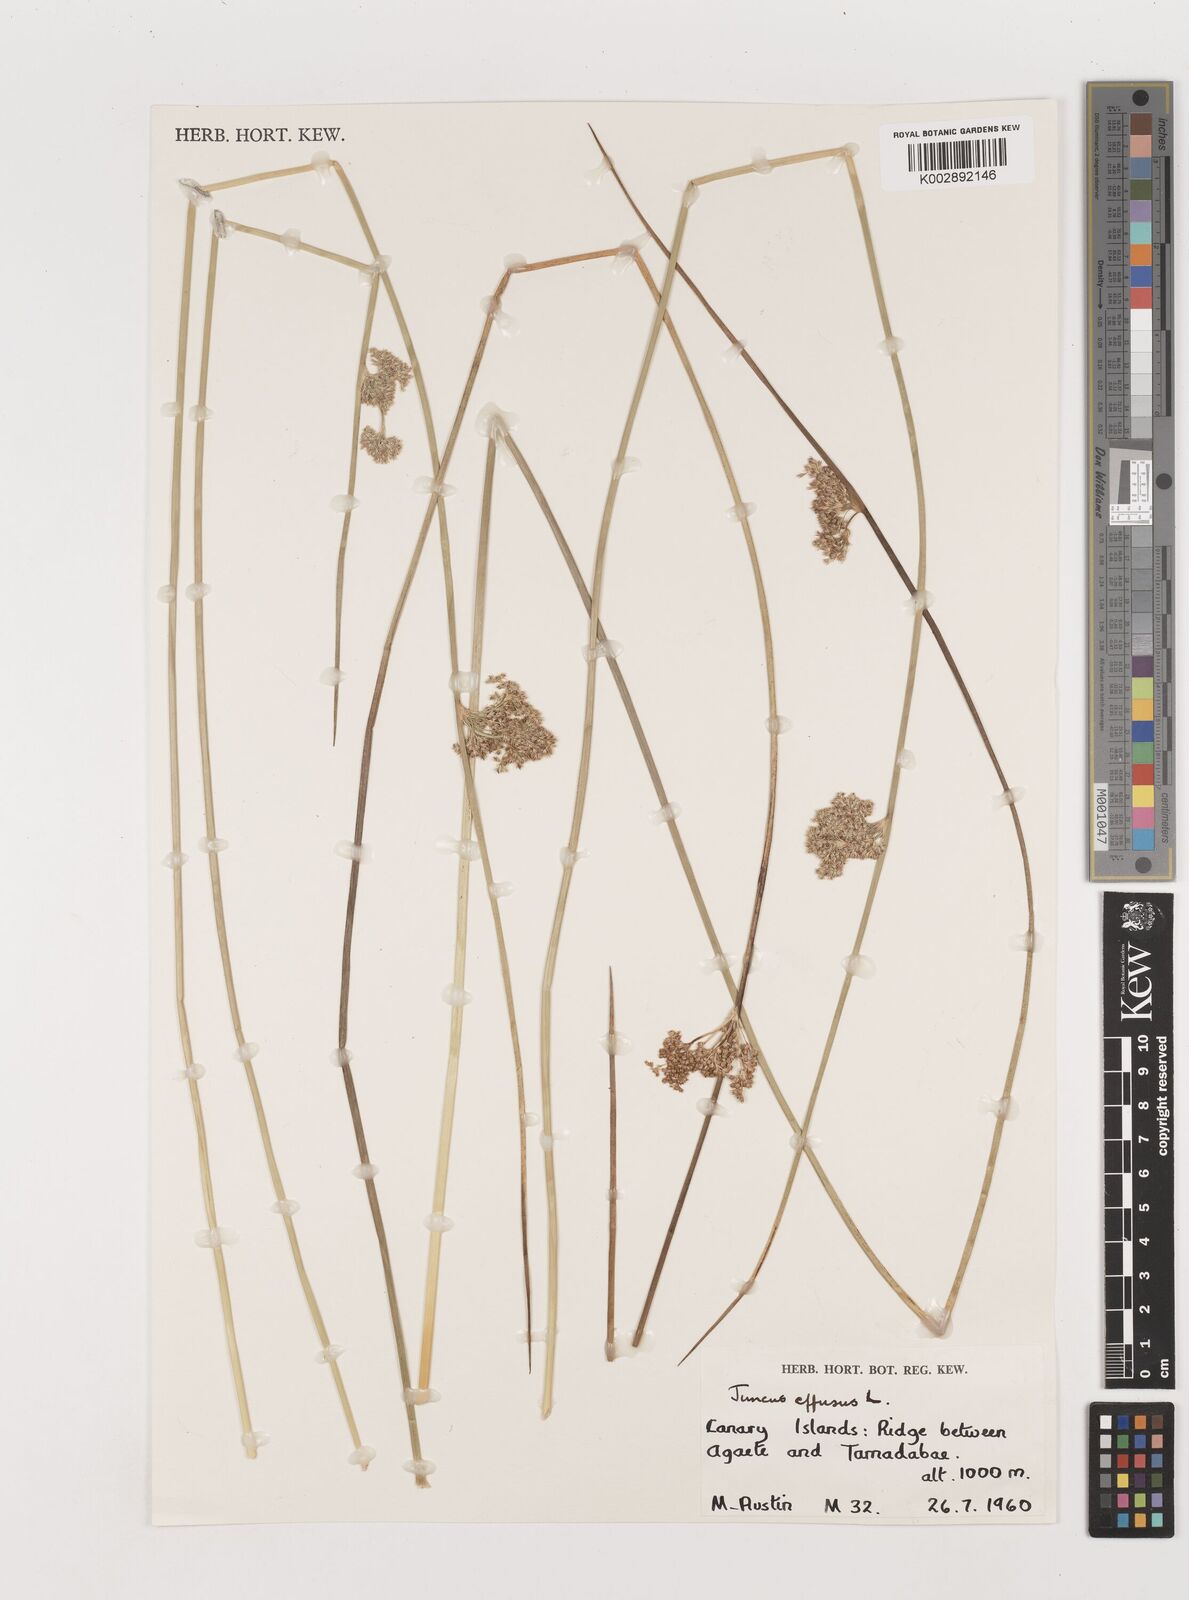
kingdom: Plantae
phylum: Tracheophyta
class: Liliopsida
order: Poales
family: Juncaceae
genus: Juncus
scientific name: Juncus effusus
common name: Soft rush
